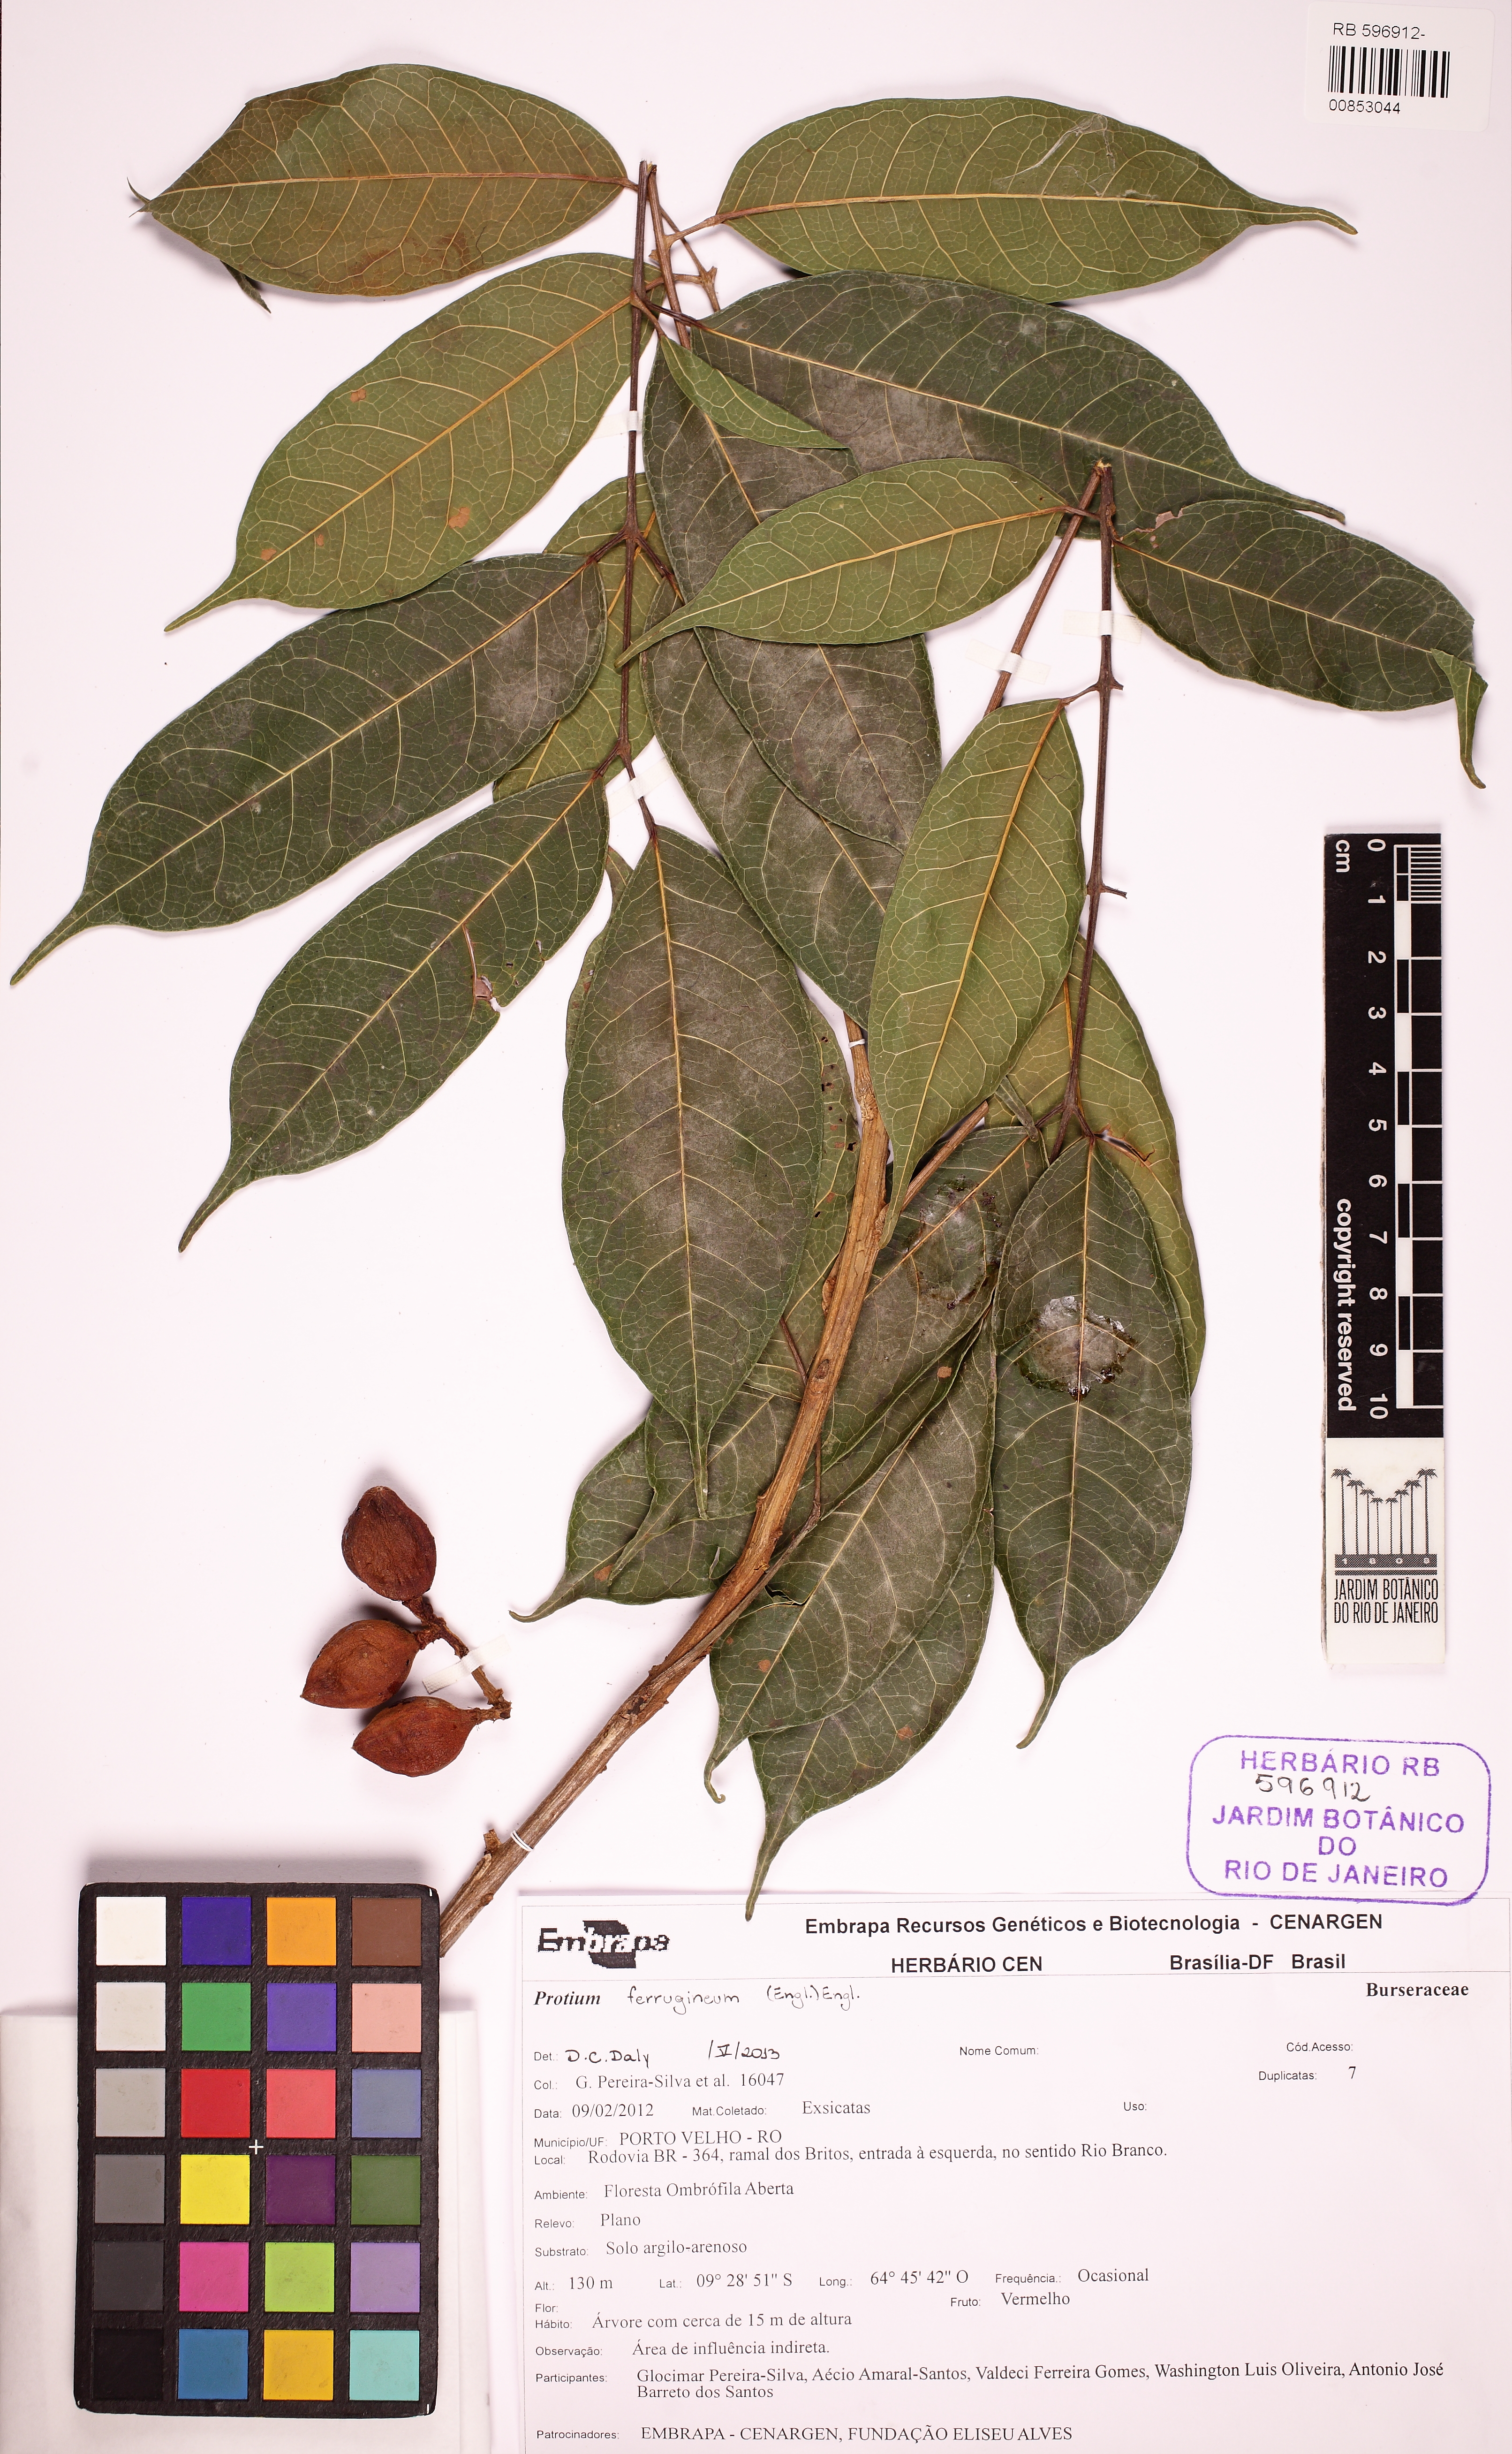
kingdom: Plantae
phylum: Tracheophyta
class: Magnoliopsida
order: Sapindales
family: Burseraceae
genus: Protium
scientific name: Protium ferrugineum
